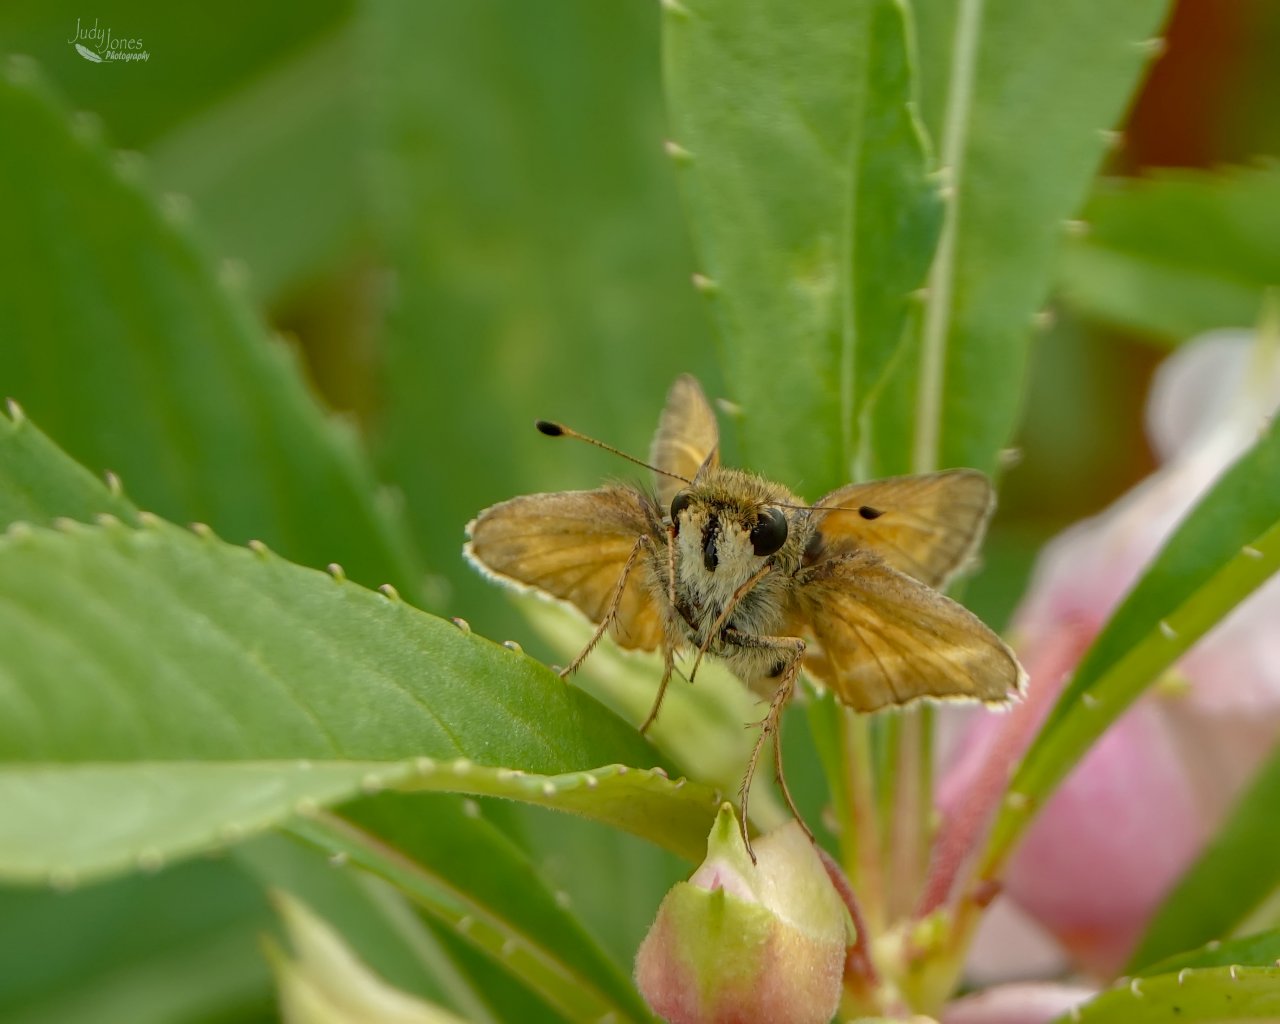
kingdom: Animalia
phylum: Arthropoda
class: Insecta
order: Lepidoptera
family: Hesperiidae
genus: Atalopedes
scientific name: Atalopedes campestris
